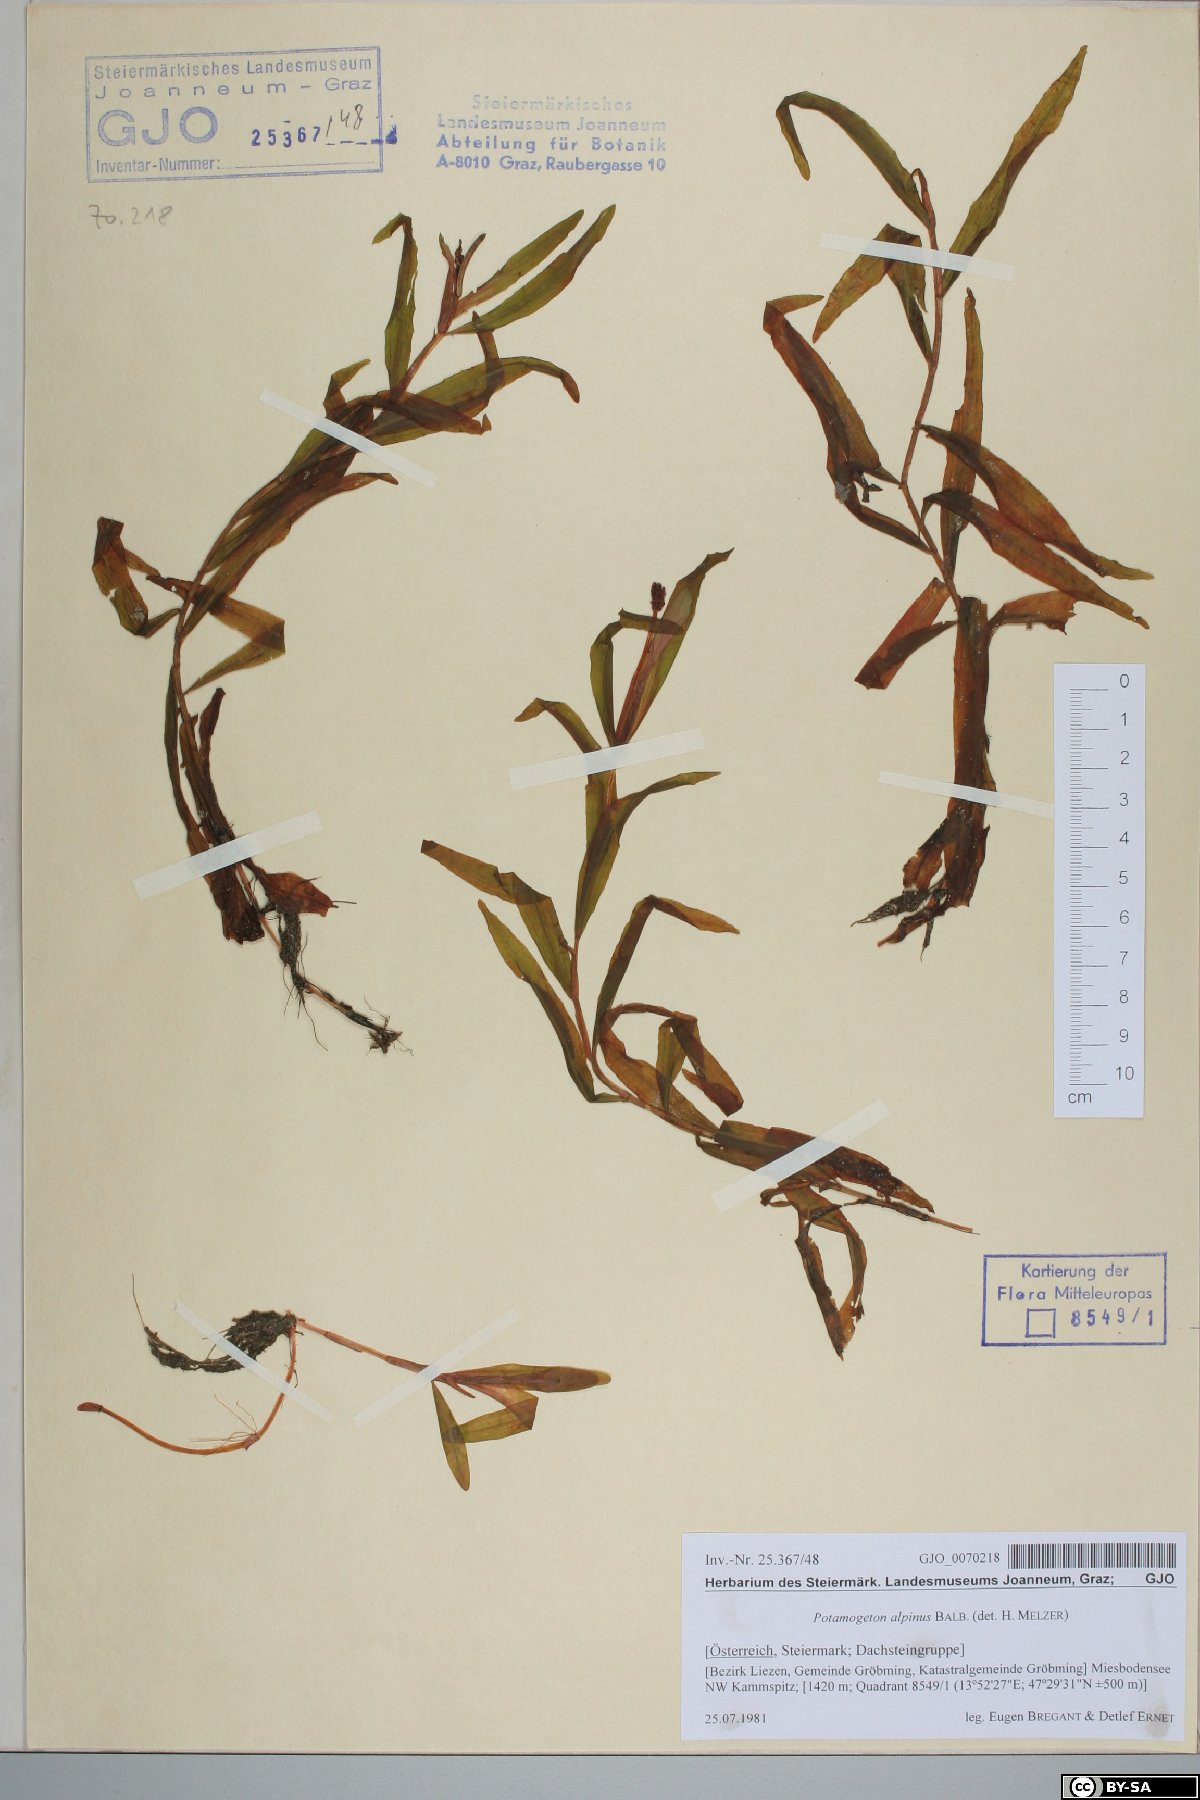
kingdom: Plantae
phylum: Tracheophyta
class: Liliopsida
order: Alismatales
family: Potamogetonaceae
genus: Potamogeton
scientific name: Potamogeton alpinus
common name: Red pondweed
